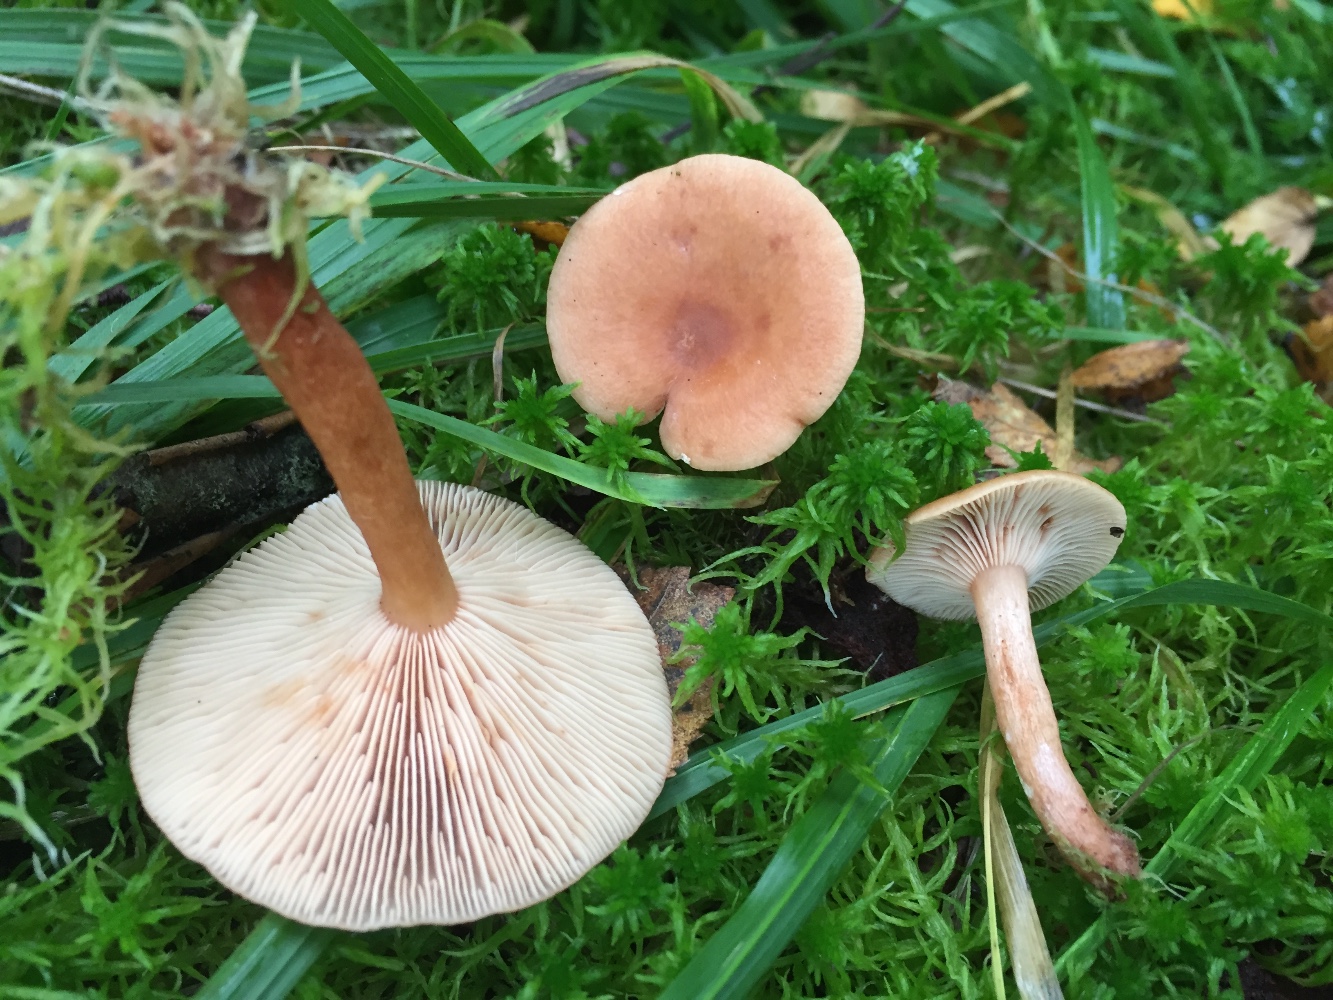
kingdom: Fungi
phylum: Basidiomycota
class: Agaricomycetes
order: Russulales
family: Russulaceae
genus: Lactarius
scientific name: Lactarius tabidus
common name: rynket mælkehat
